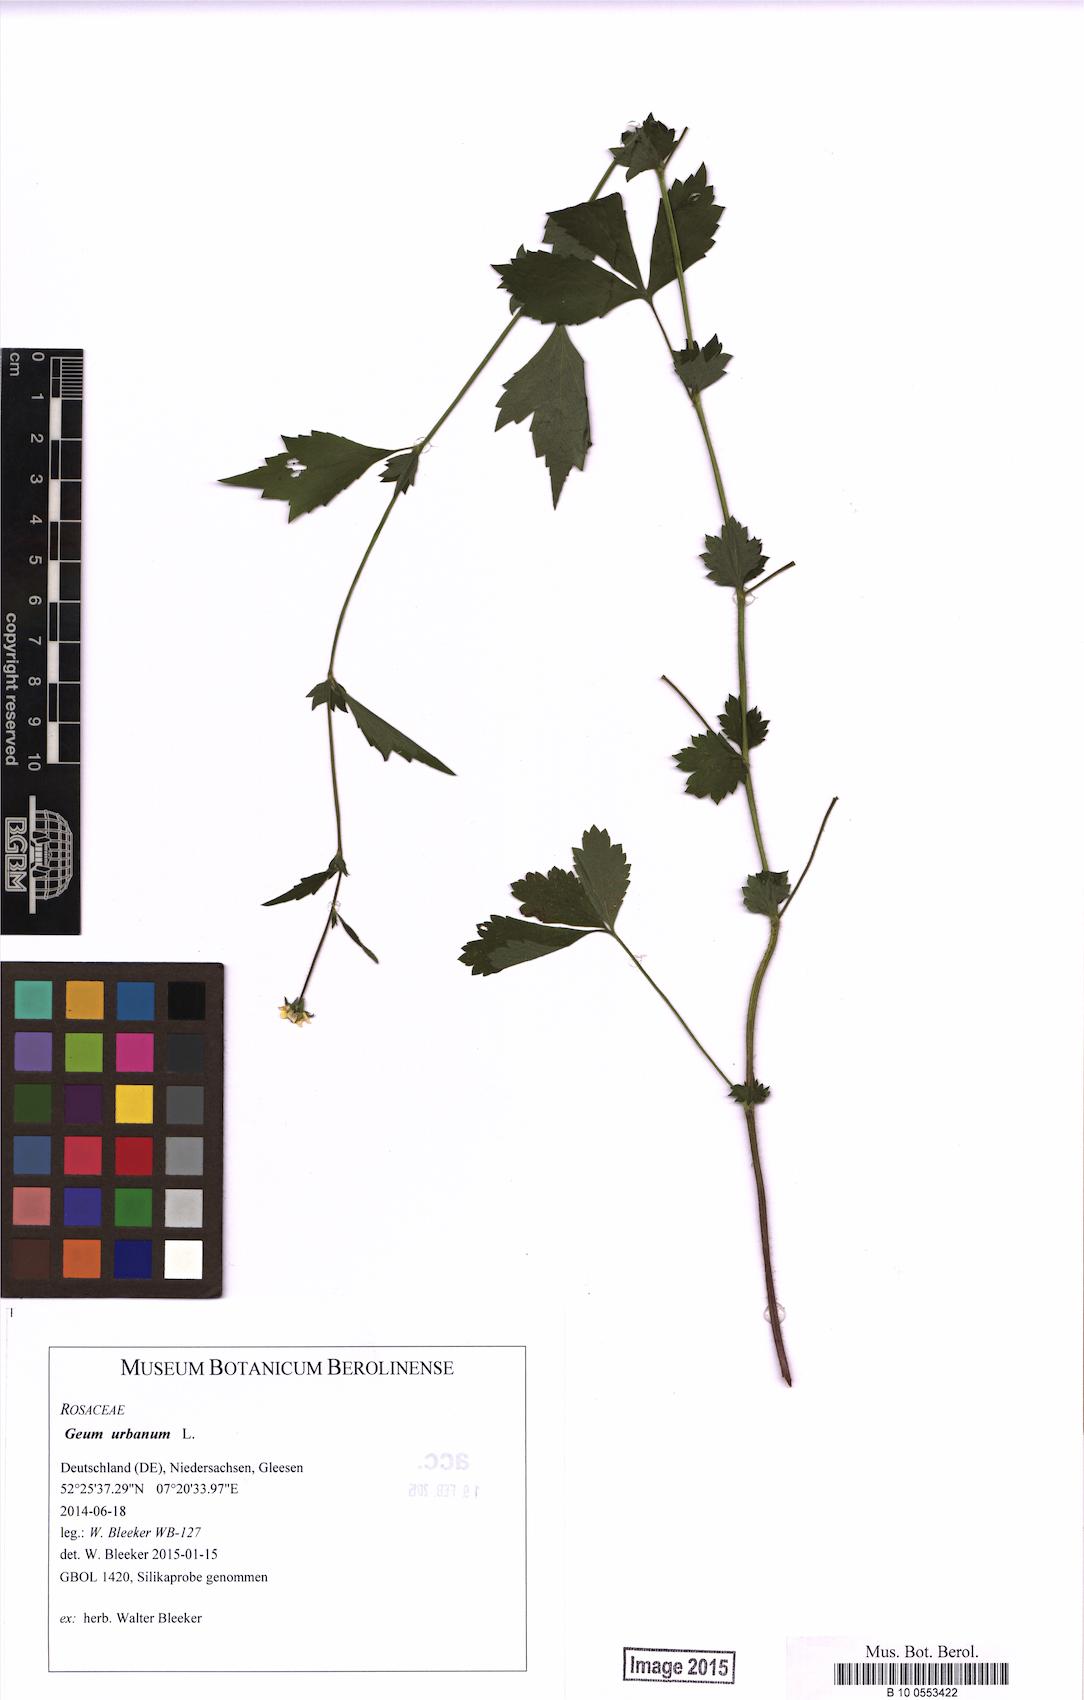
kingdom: Plantae
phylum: Tracheophyta
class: Magnoliopsida
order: Rosales
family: Rosaceae
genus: Geum
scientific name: Geum urbanum
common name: Wood avens
